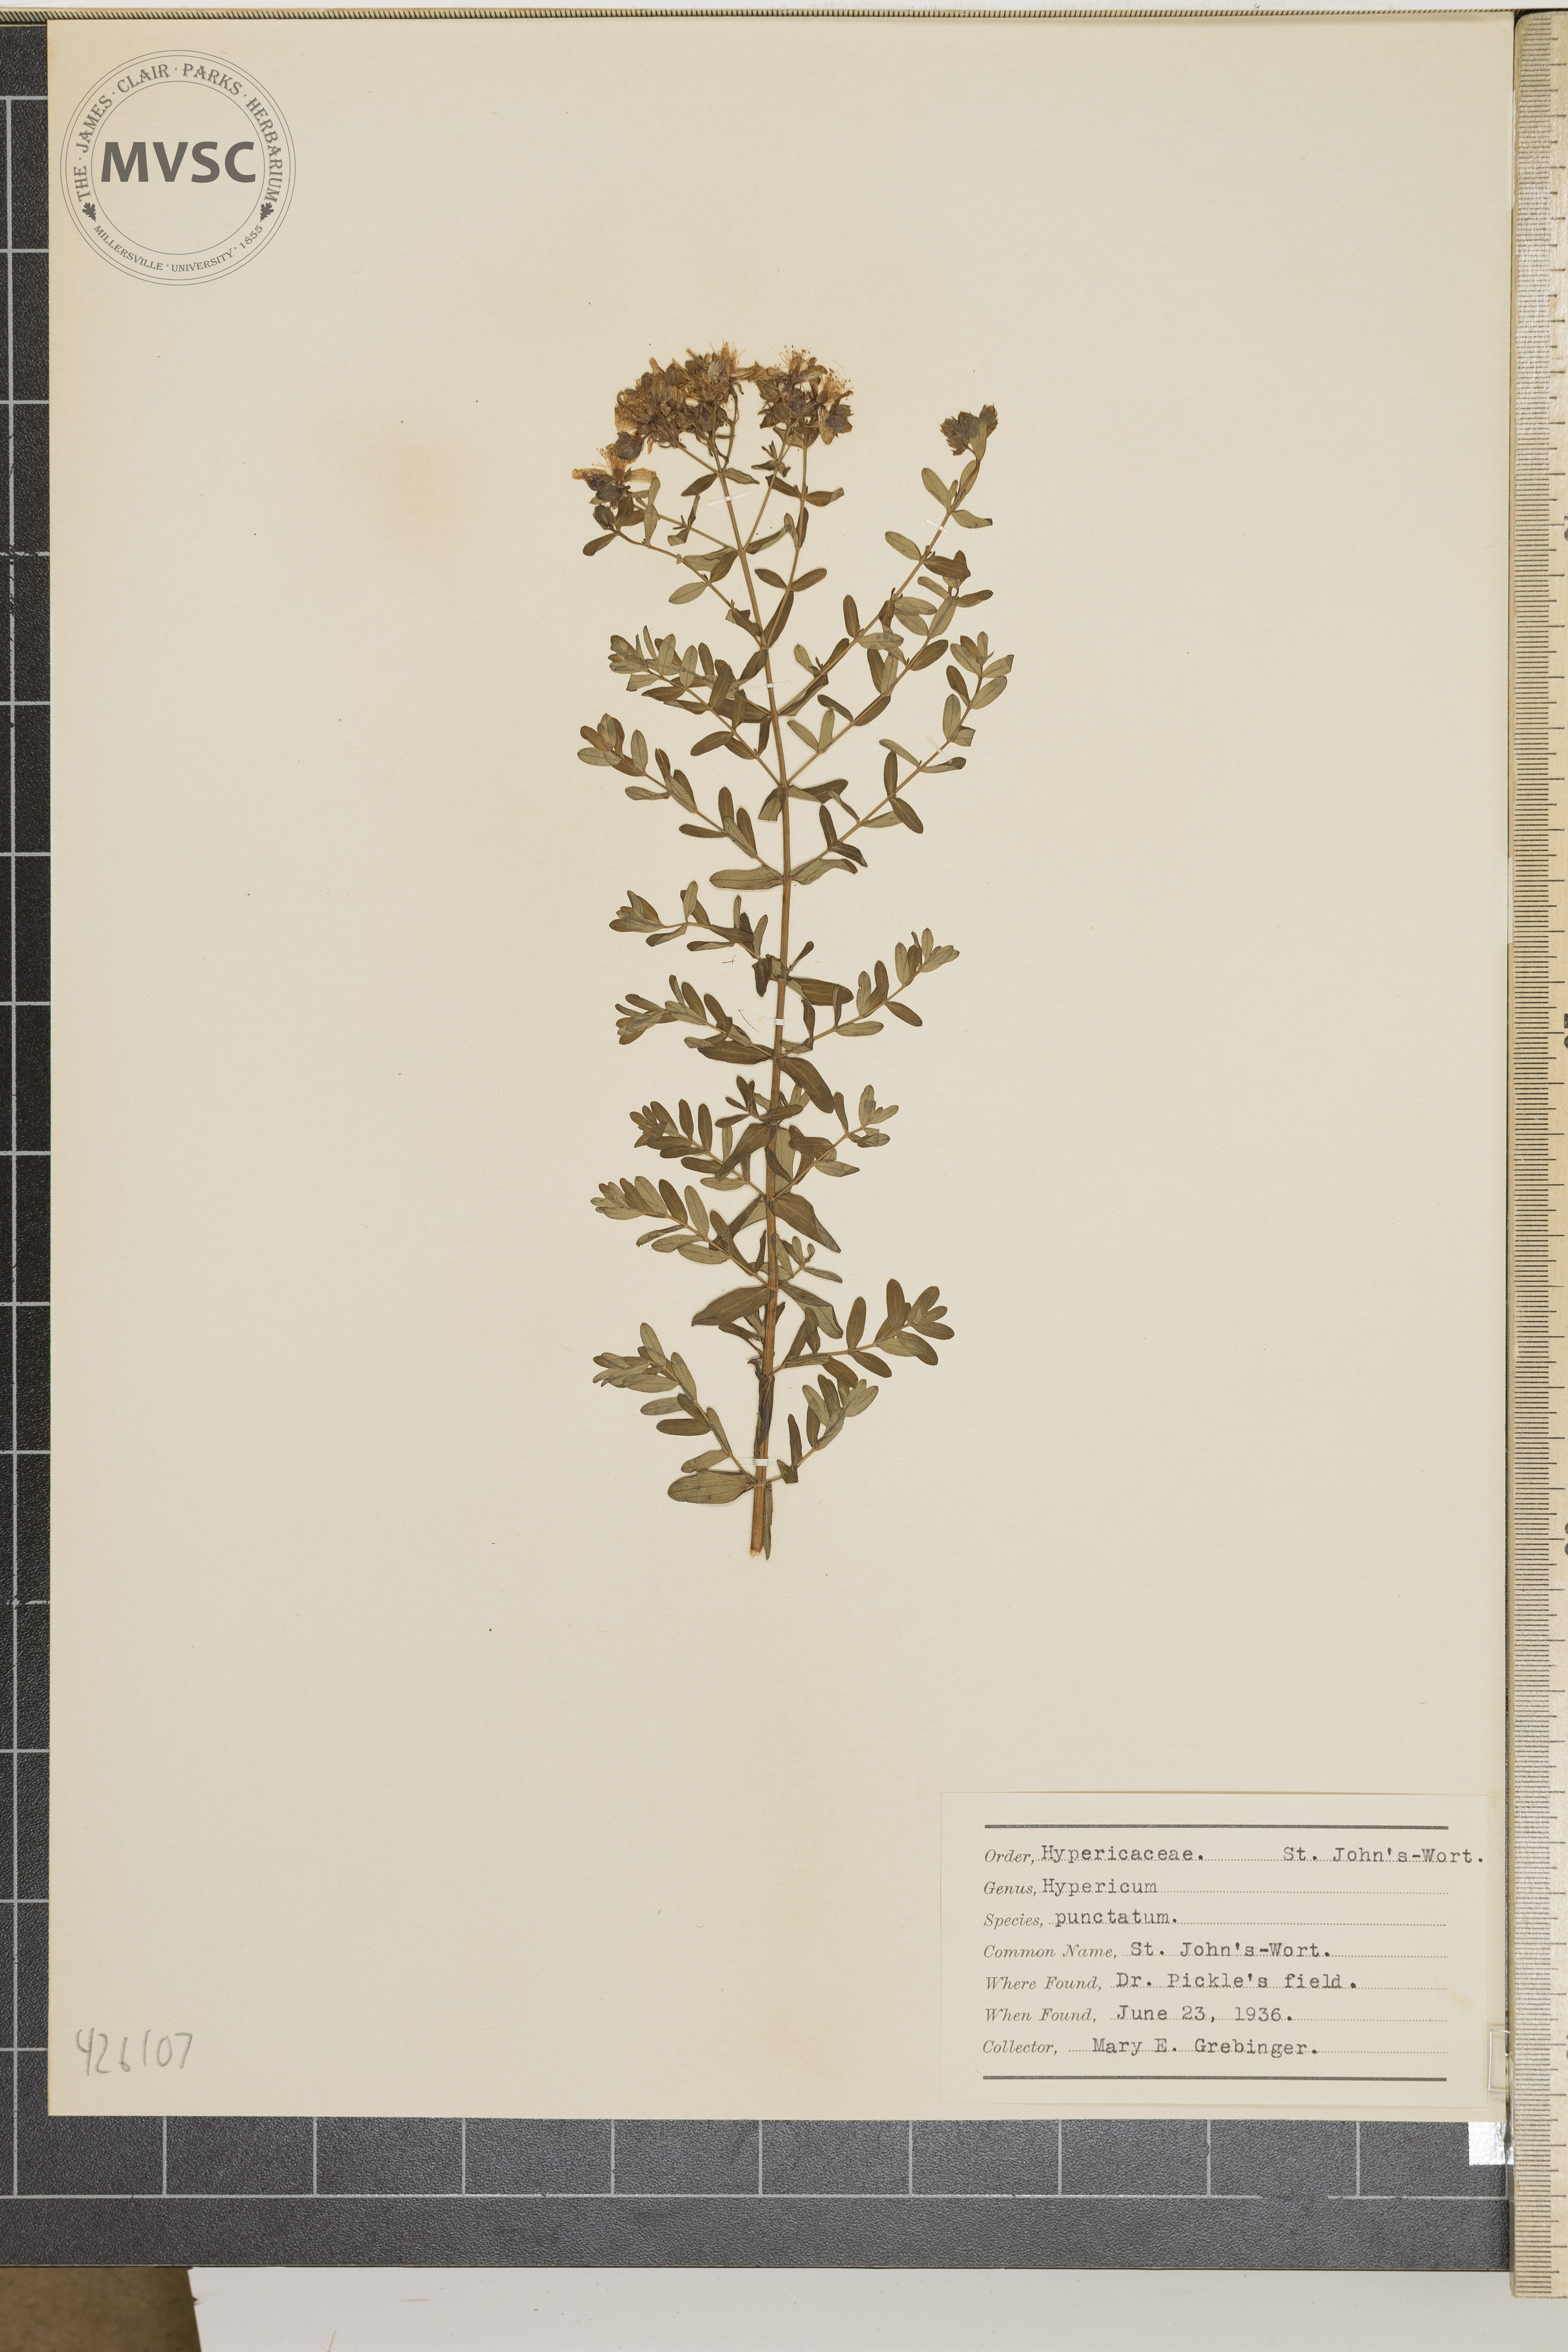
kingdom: Plantae
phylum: Tracheophyta
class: Magnoliopsida
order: Malpighiales
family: Hypericaceae
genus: Hypericum
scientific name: Hypericum punctatum
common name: St. John's-wort
